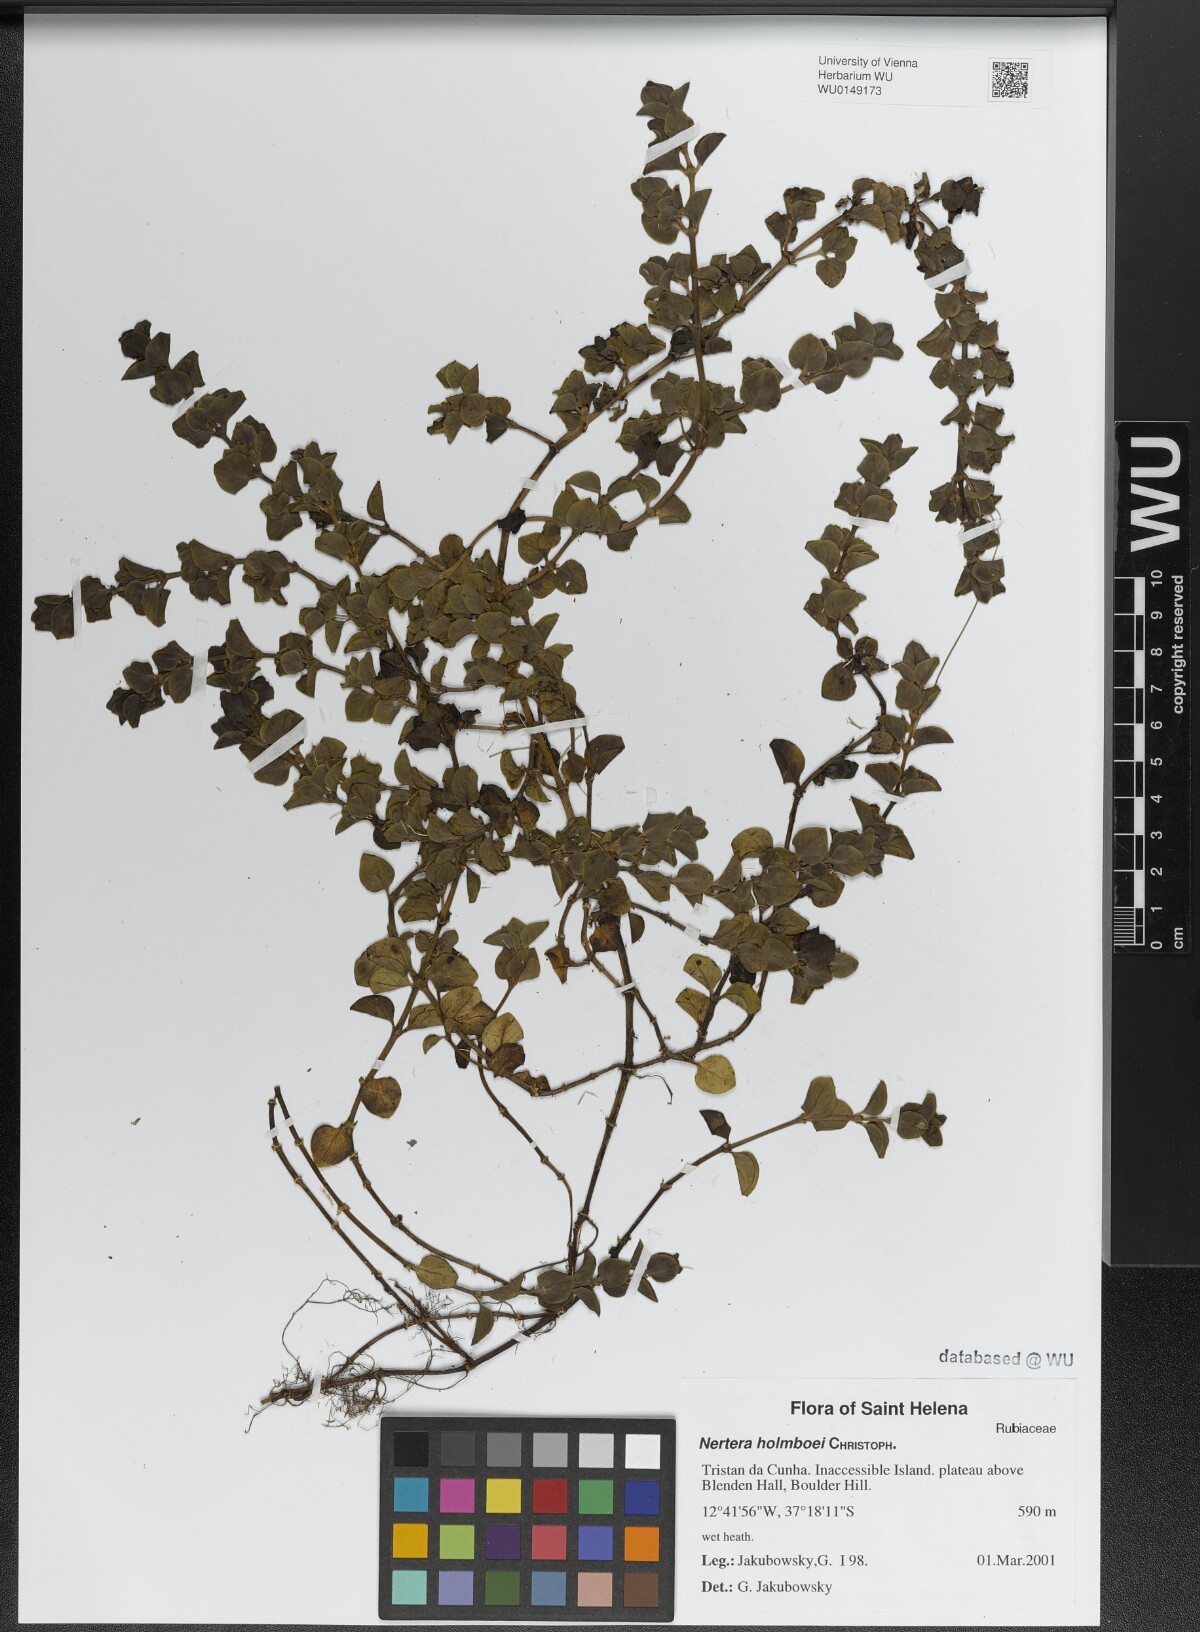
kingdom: Plantae
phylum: Tracheophyta
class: Magnoliopsida
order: Gentianales
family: Rubiaceae
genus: Nertera
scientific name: Nertera holmboei
